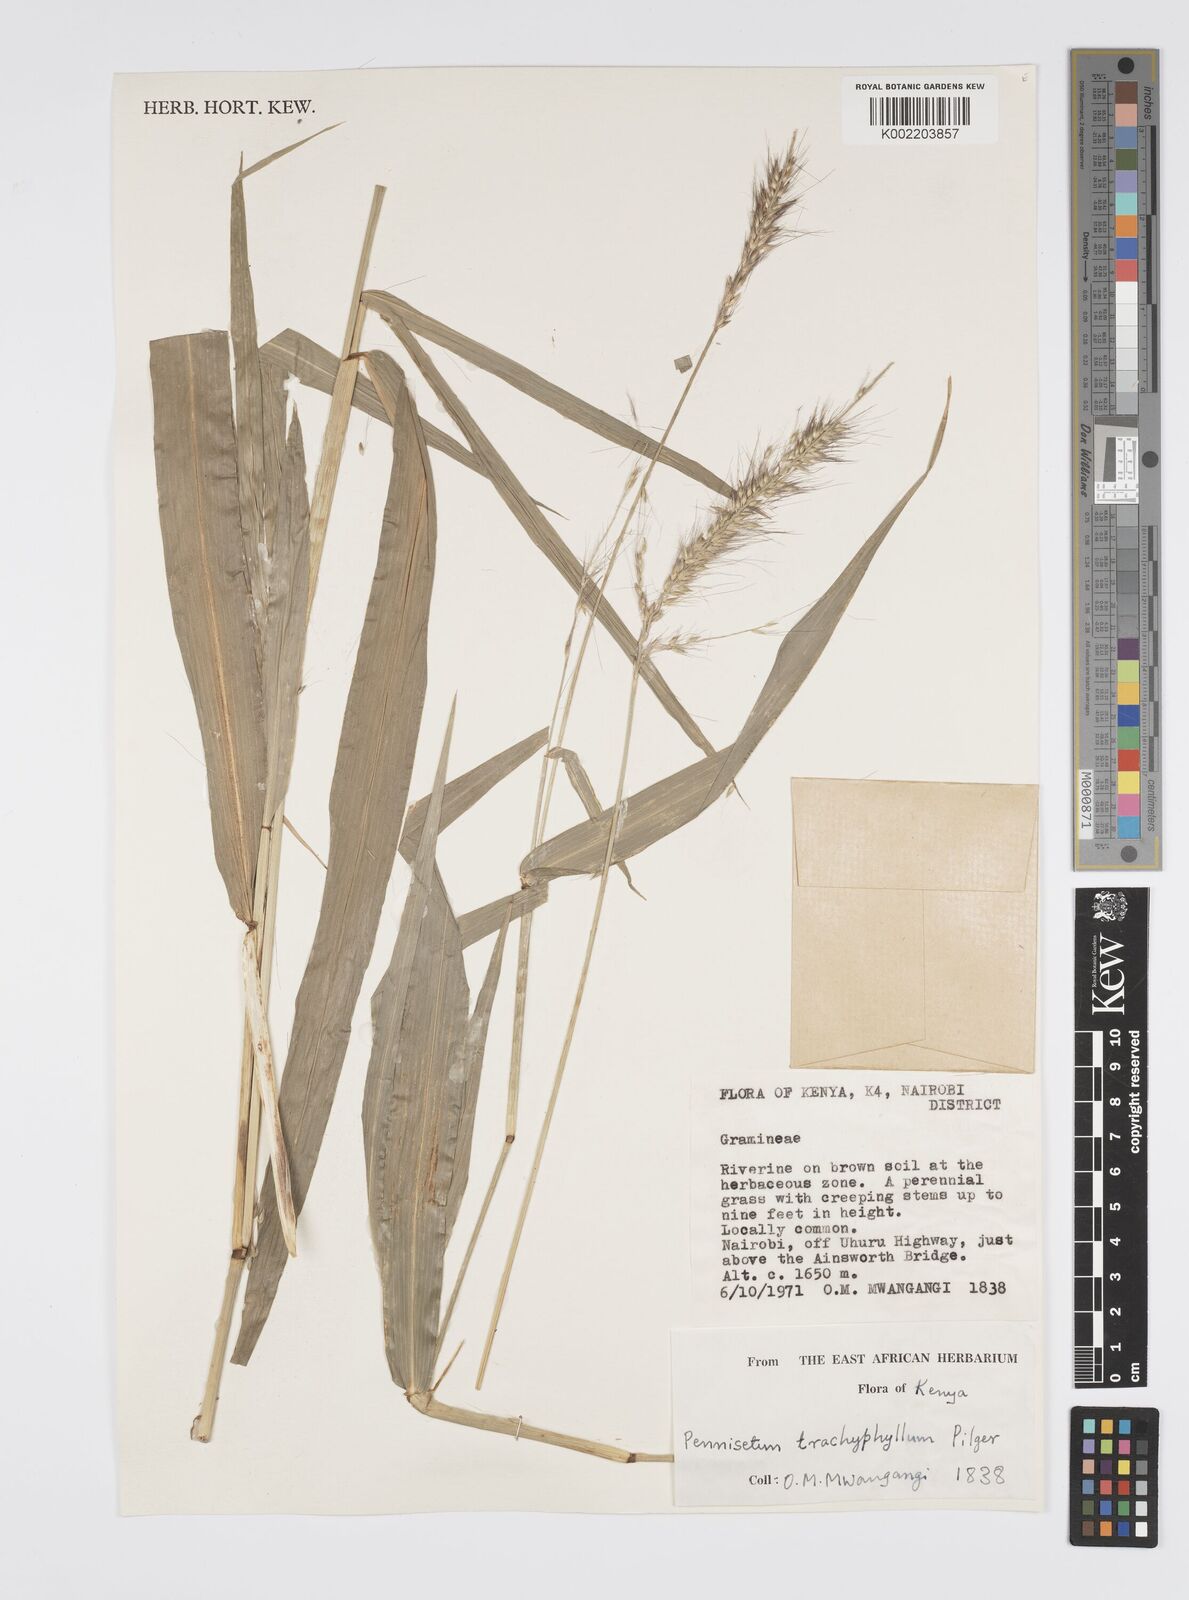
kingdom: Plantae
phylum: Tracheophyta
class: Liliopsida
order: Poales
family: Poaceae
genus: Cenchrus
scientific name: Cenchrus trachyphyllus
